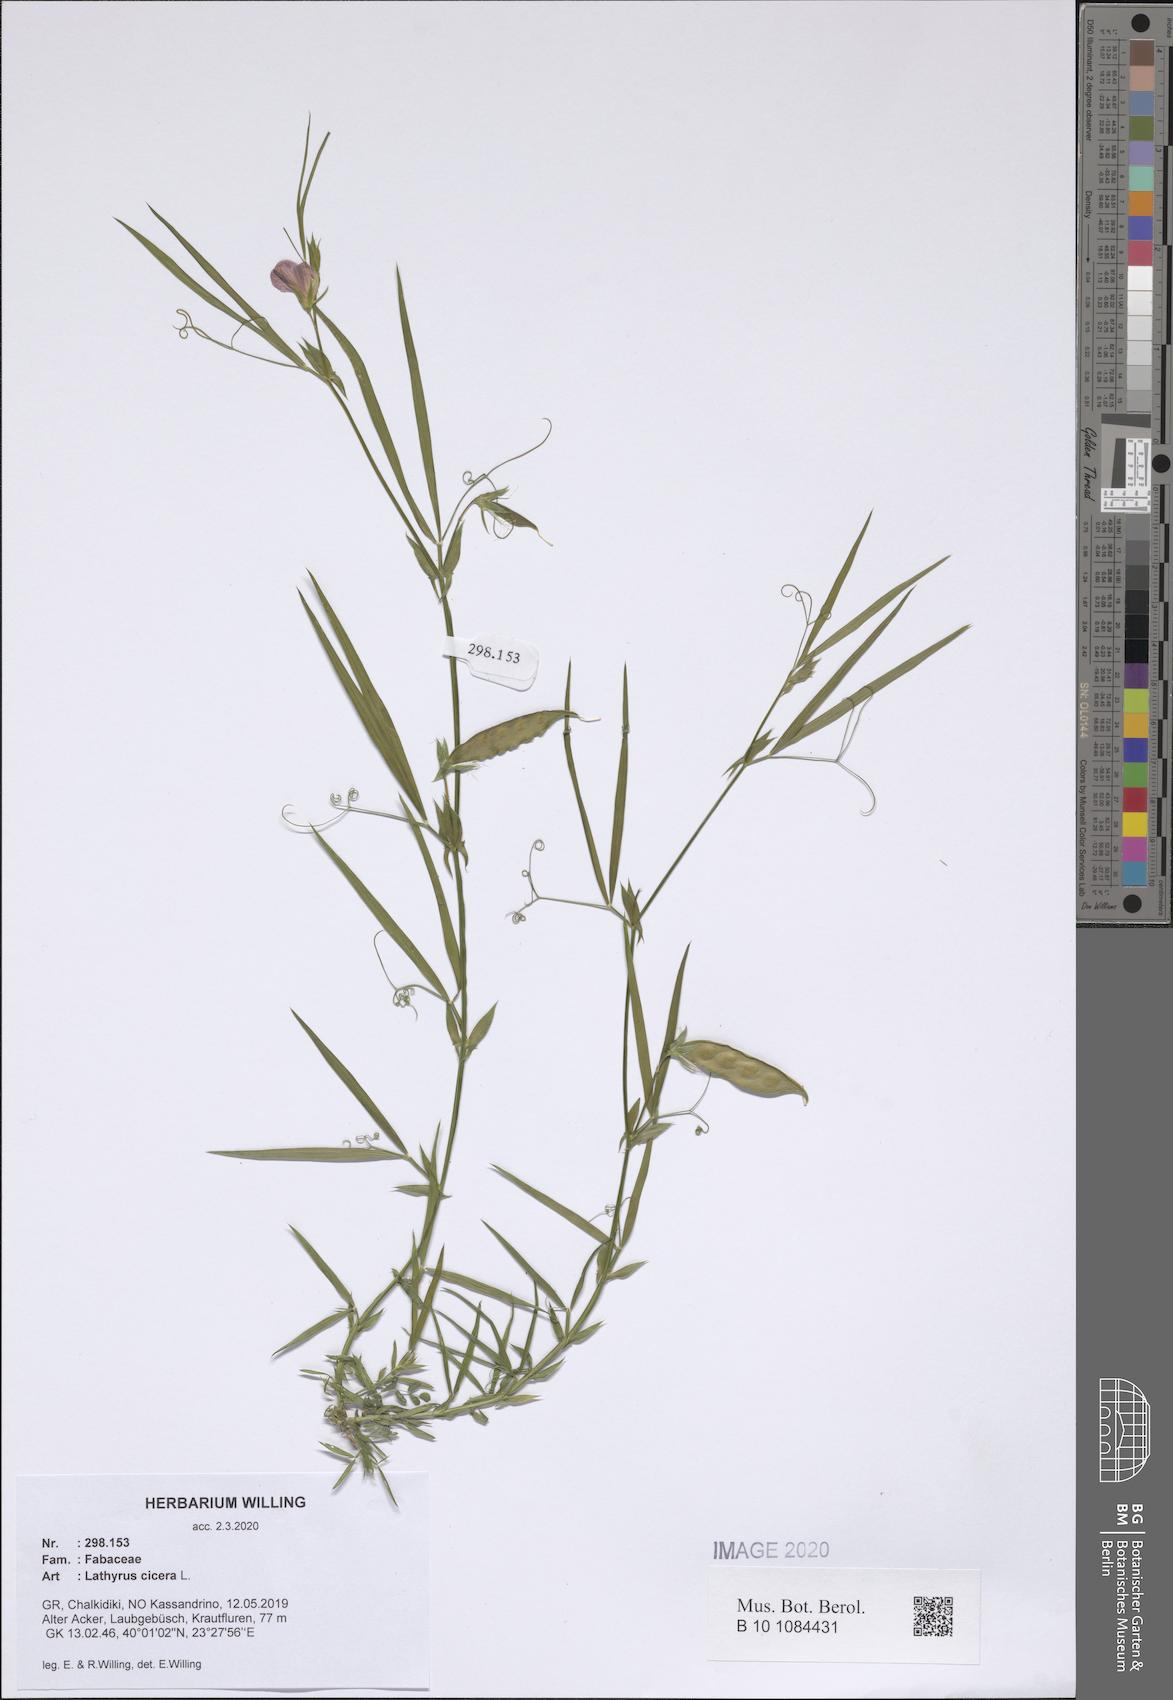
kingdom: Plantae
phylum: Tracheophyta
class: Magnoliopsida
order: Fabales
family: Fabaceae
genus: Lathyrus
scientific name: Lathyrus cicera
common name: Red vetchling
